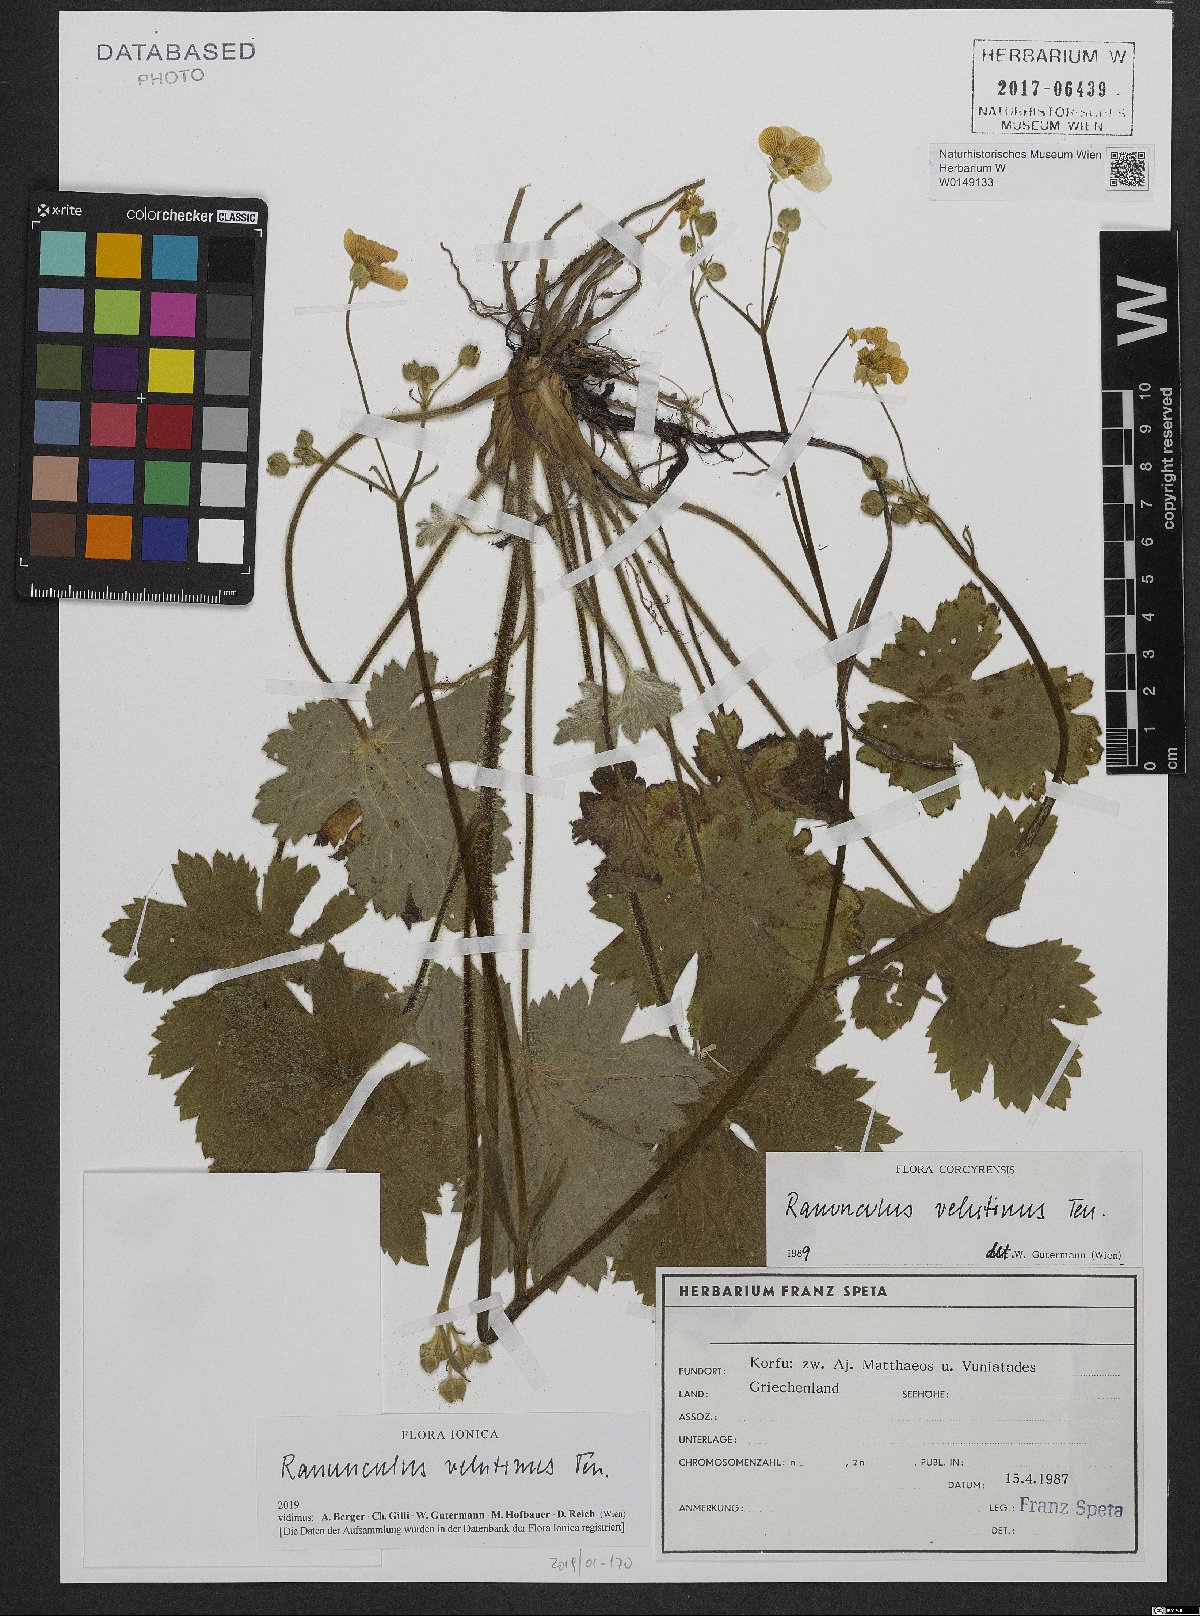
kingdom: Plantae
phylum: Tracheophyta
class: Magnoliopsida
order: Ranunculales
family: Ranunculaceae
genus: Ranunculus
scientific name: Ranunculus velutinus
